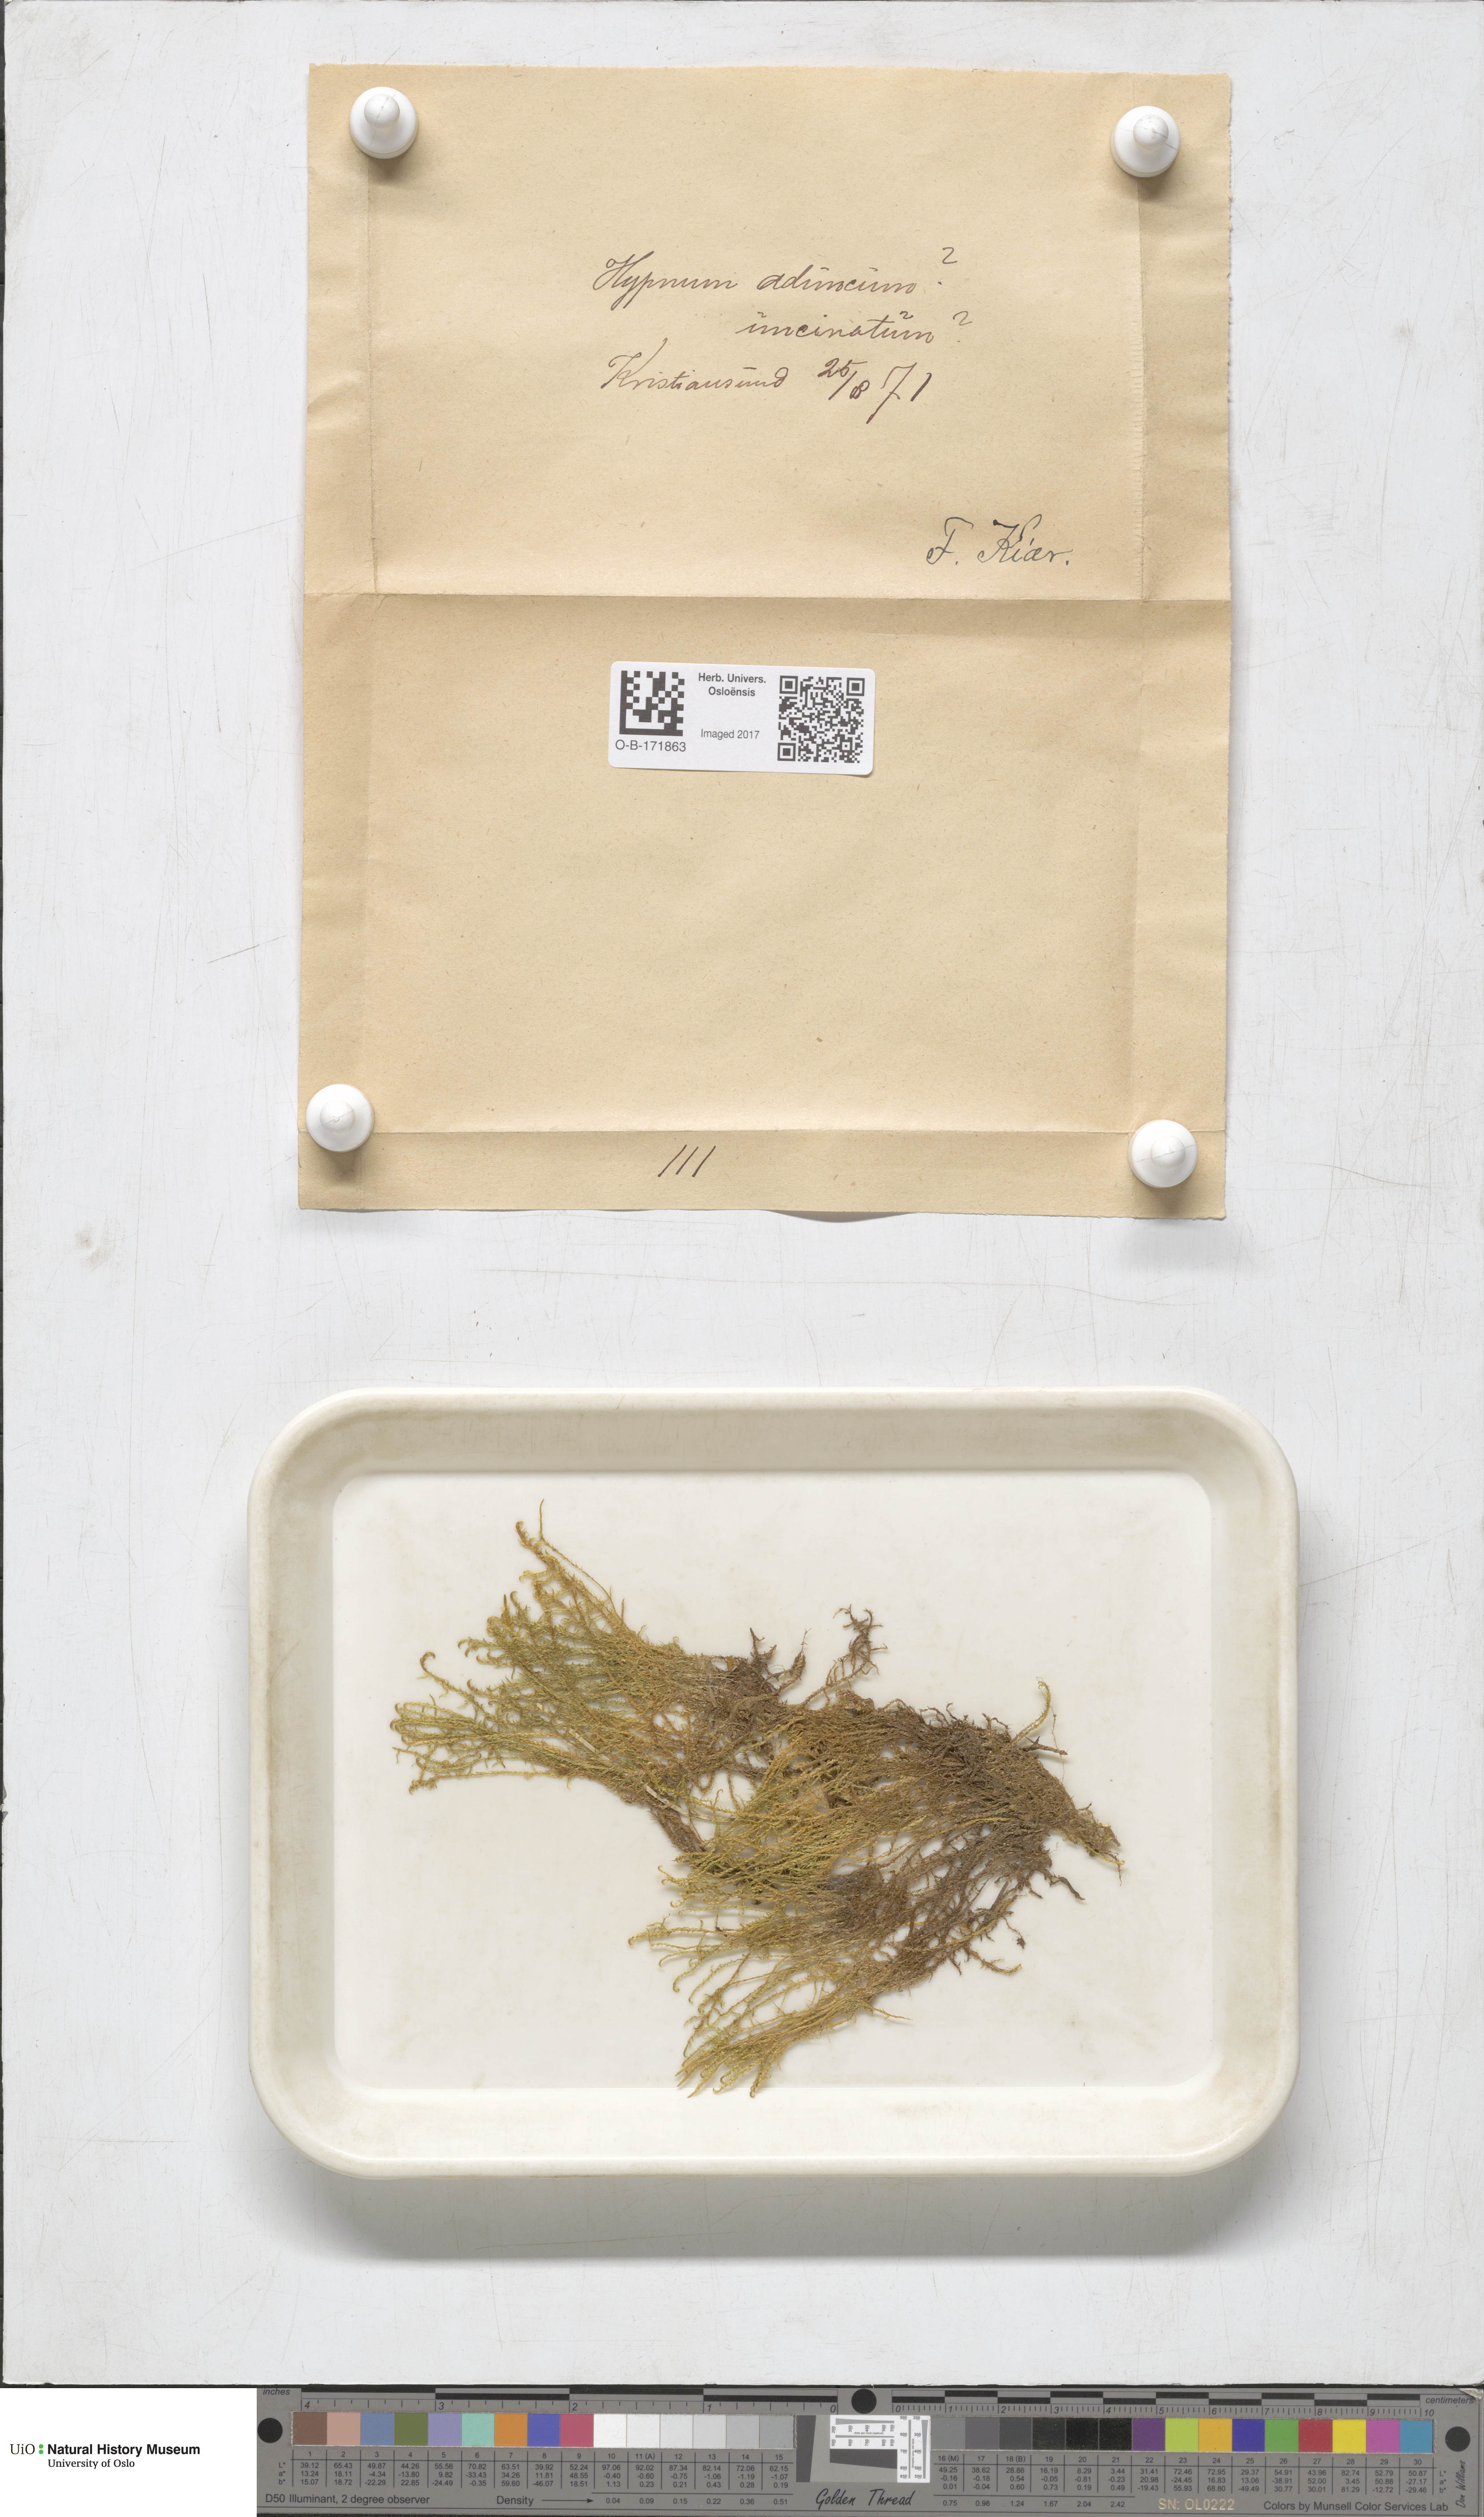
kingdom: Plantae
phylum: Bryophyta
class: Bryopsida
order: Hypnales
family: Amblystegiaceae
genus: Drepanocladus
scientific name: Drepanocladus aduncus
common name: Knieff's hook moss
